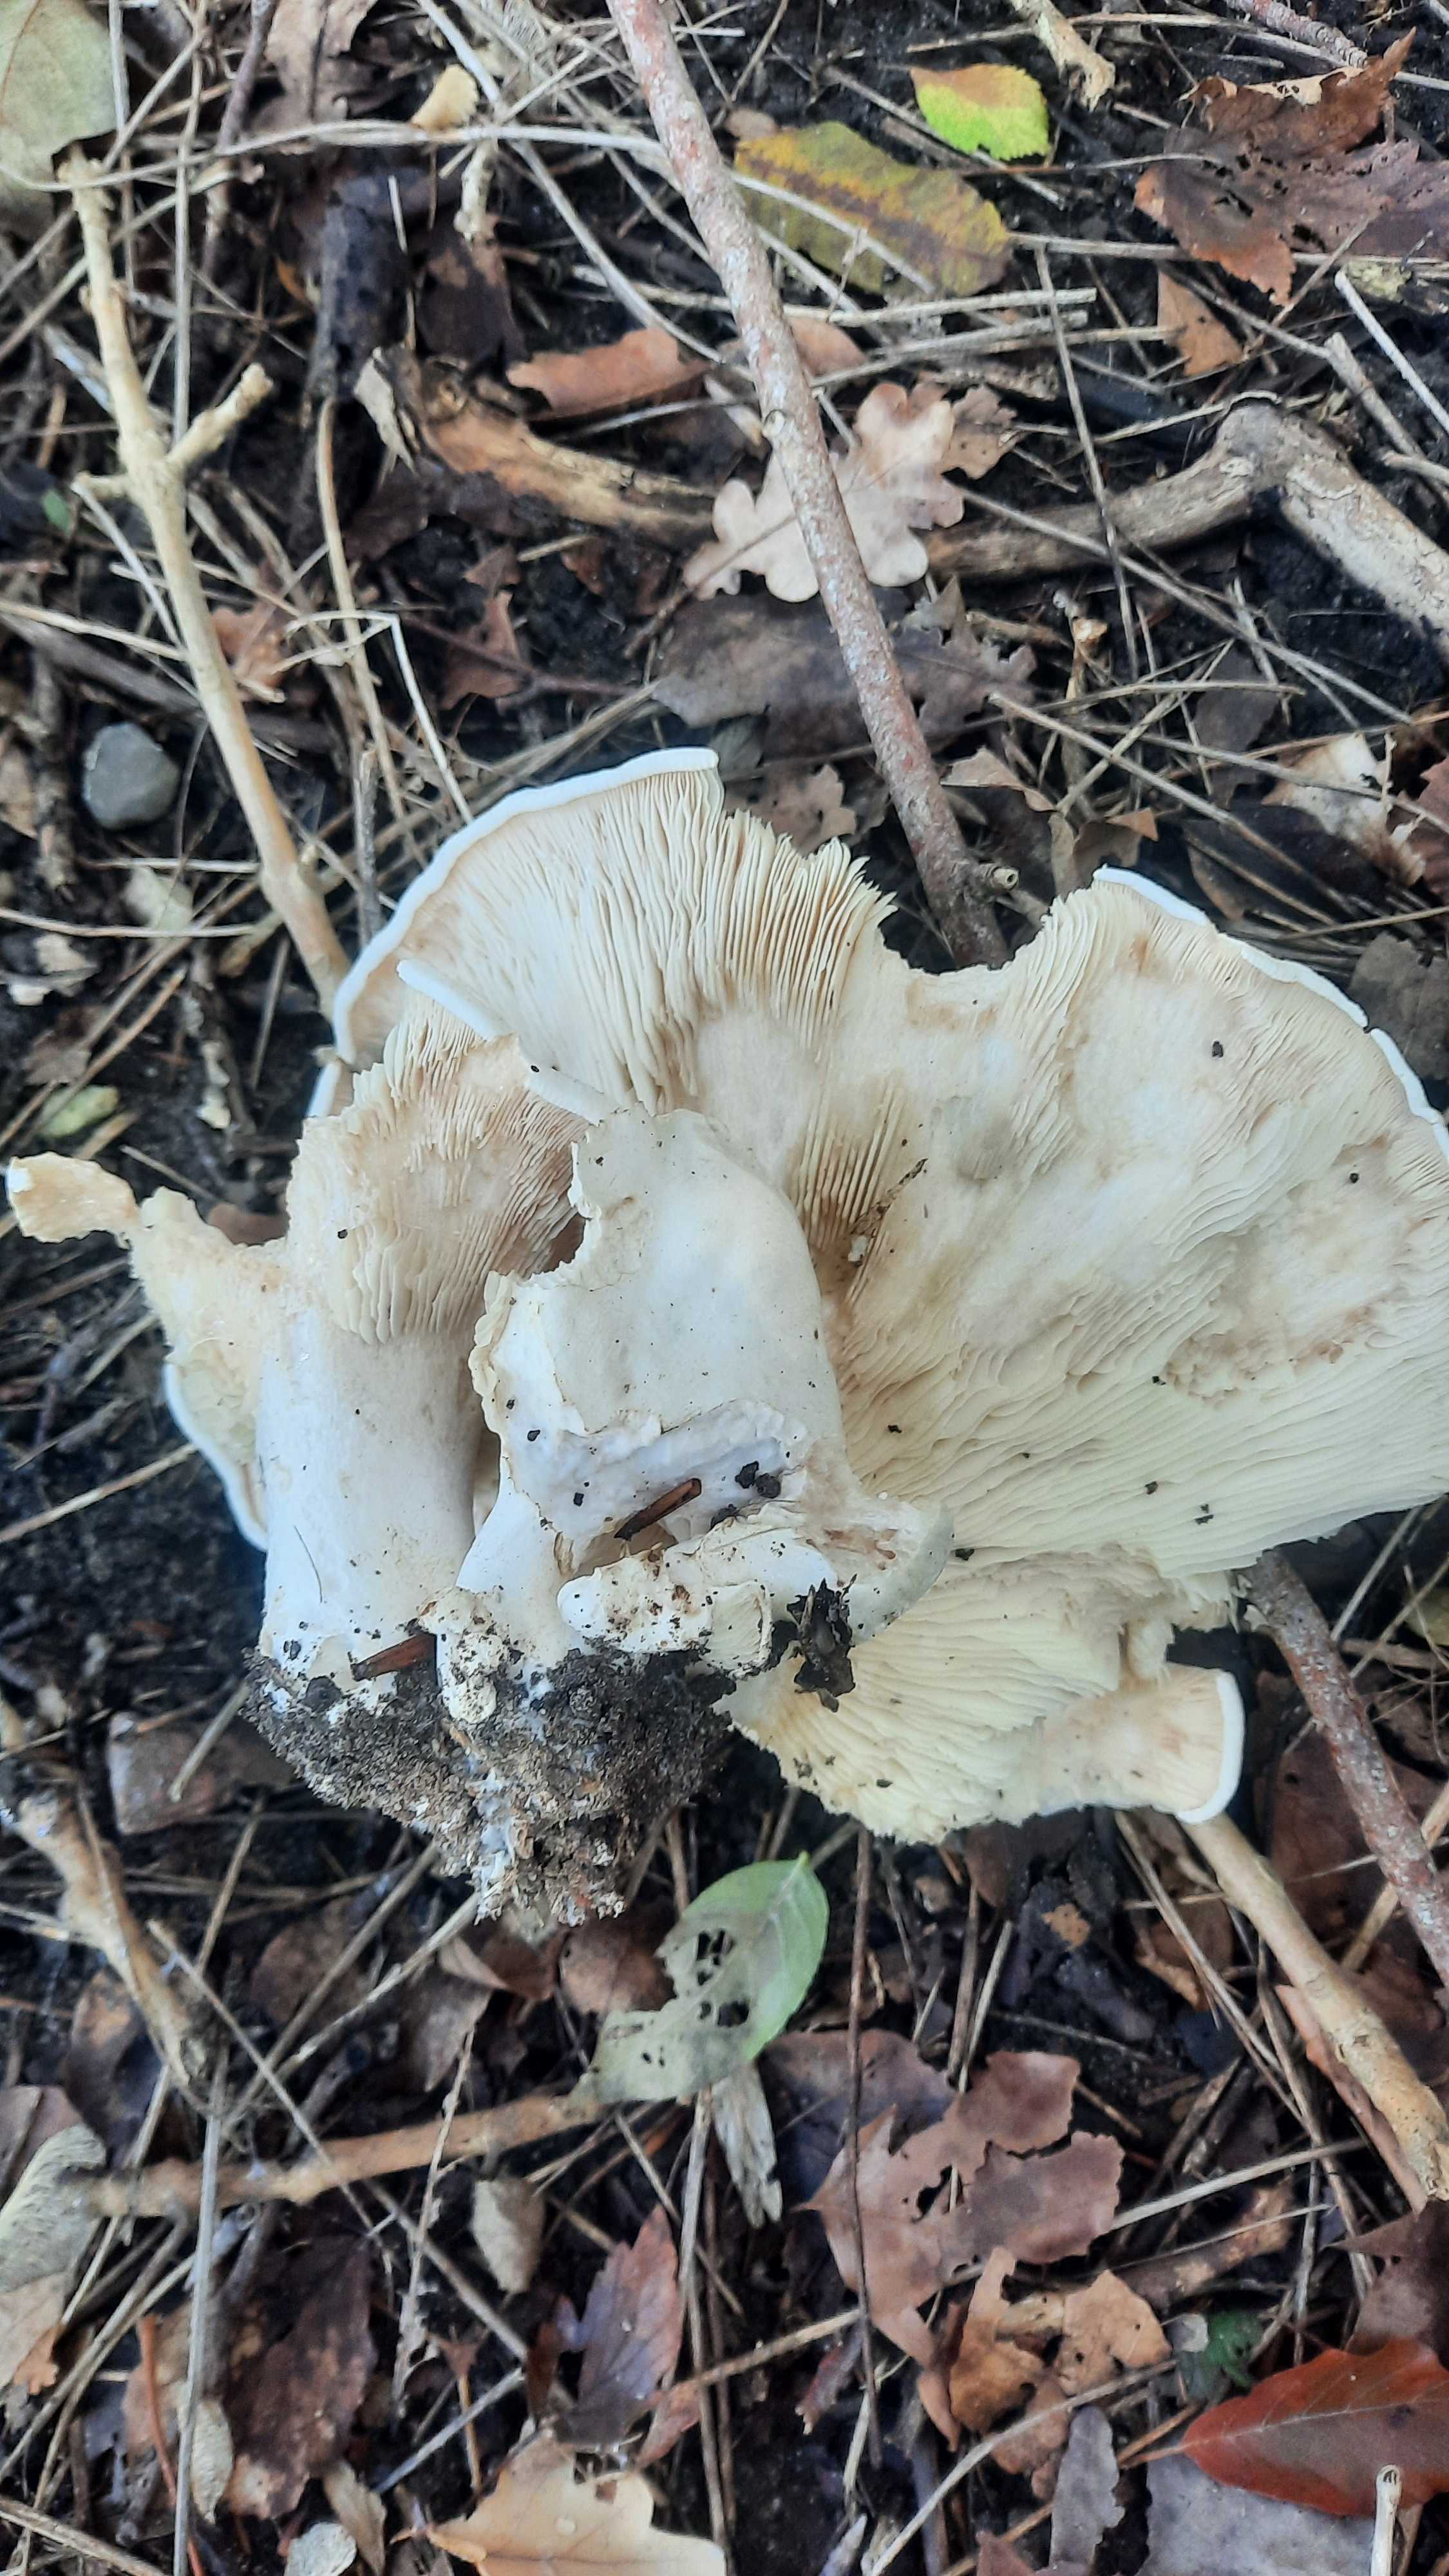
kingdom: Fungi
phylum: Basidiomycota
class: Agaricomycetes
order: Agaricales
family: Tricholomataceae
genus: Aspropaxillus
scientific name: Aspropaxillus giganteus
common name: kæmpe-tragtridderhat
